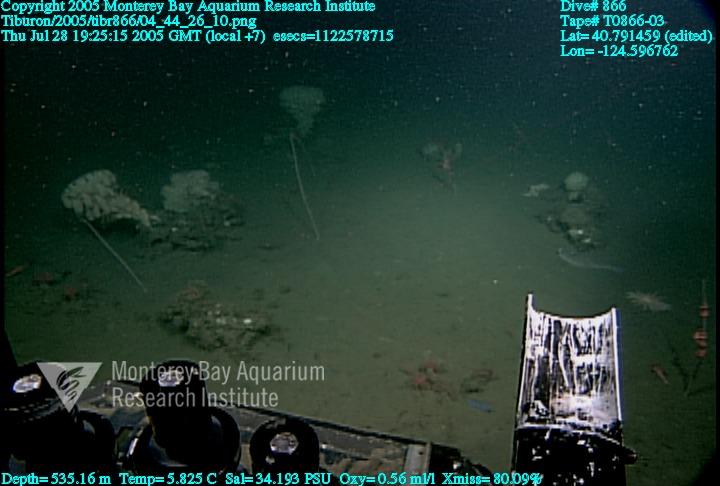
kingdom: Animalia
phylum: Porifera
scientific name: Porifera
